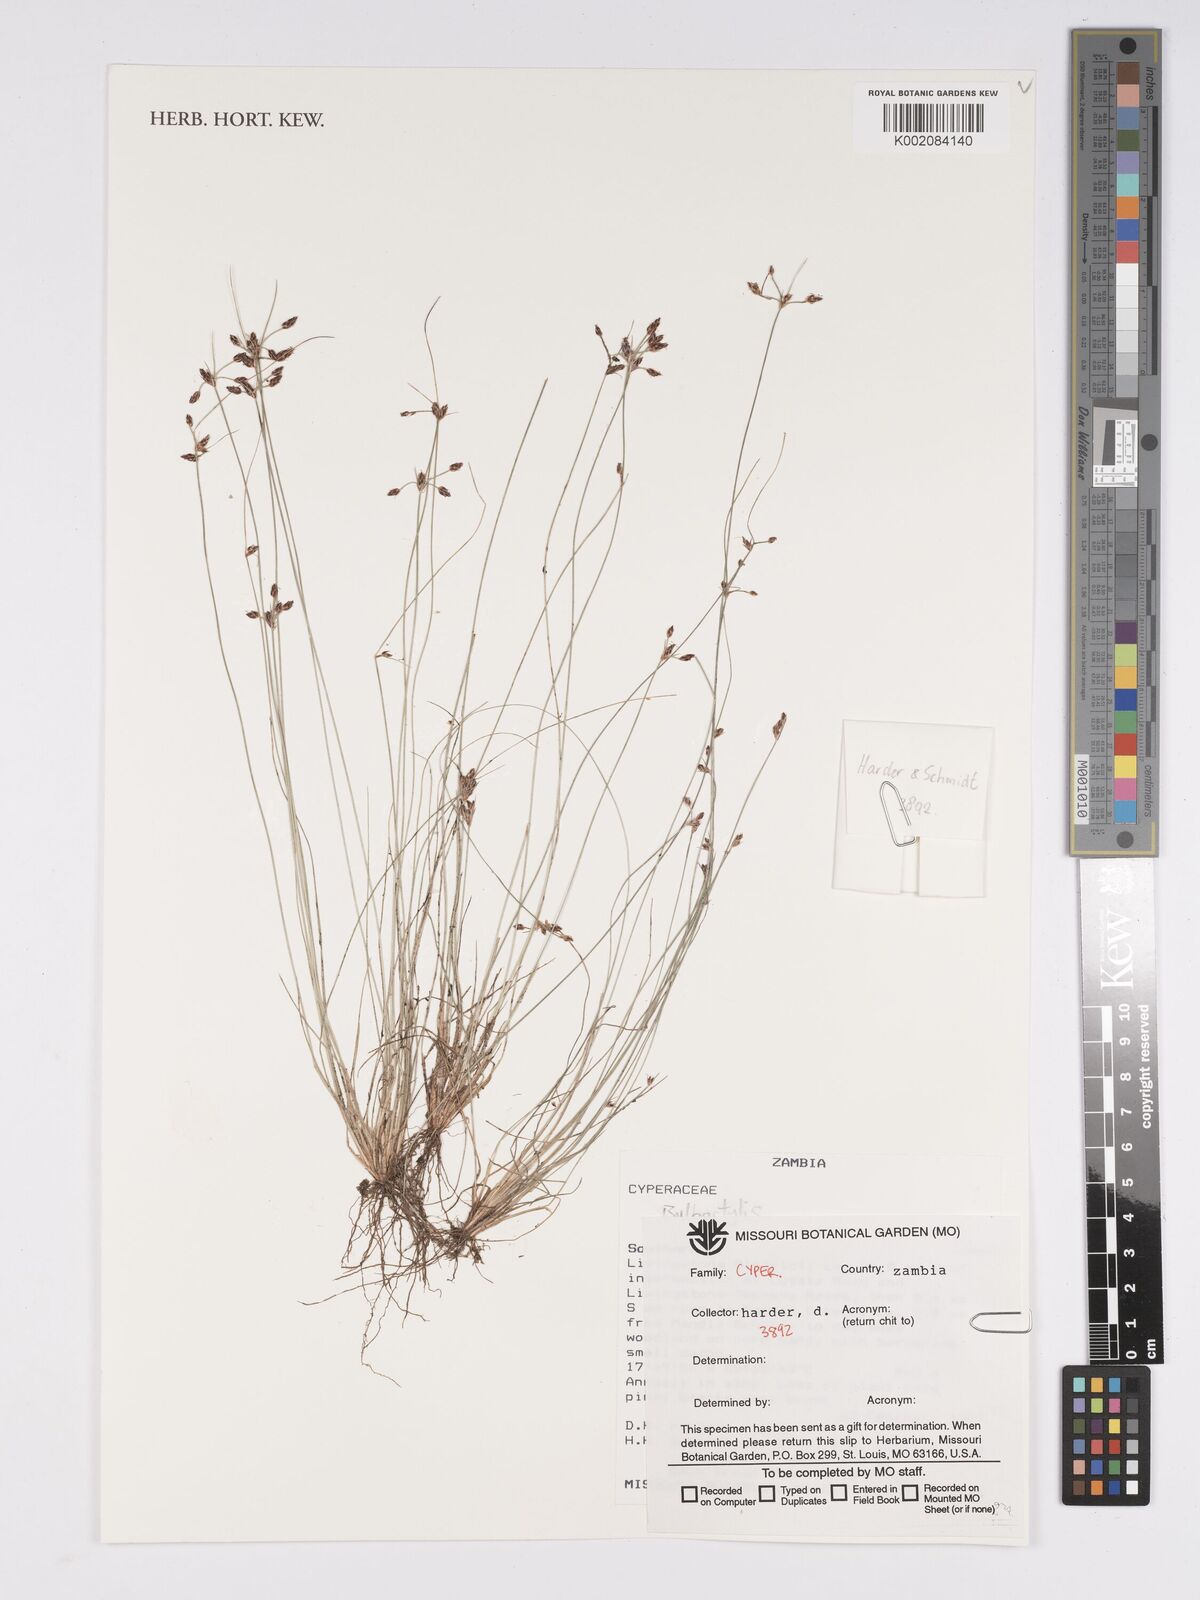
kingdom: Plantae
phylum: Tracheophyta
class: Liliopsida
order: Poales
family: Cyperaceae
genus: Bulbostylis
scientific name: Bulbostylis
